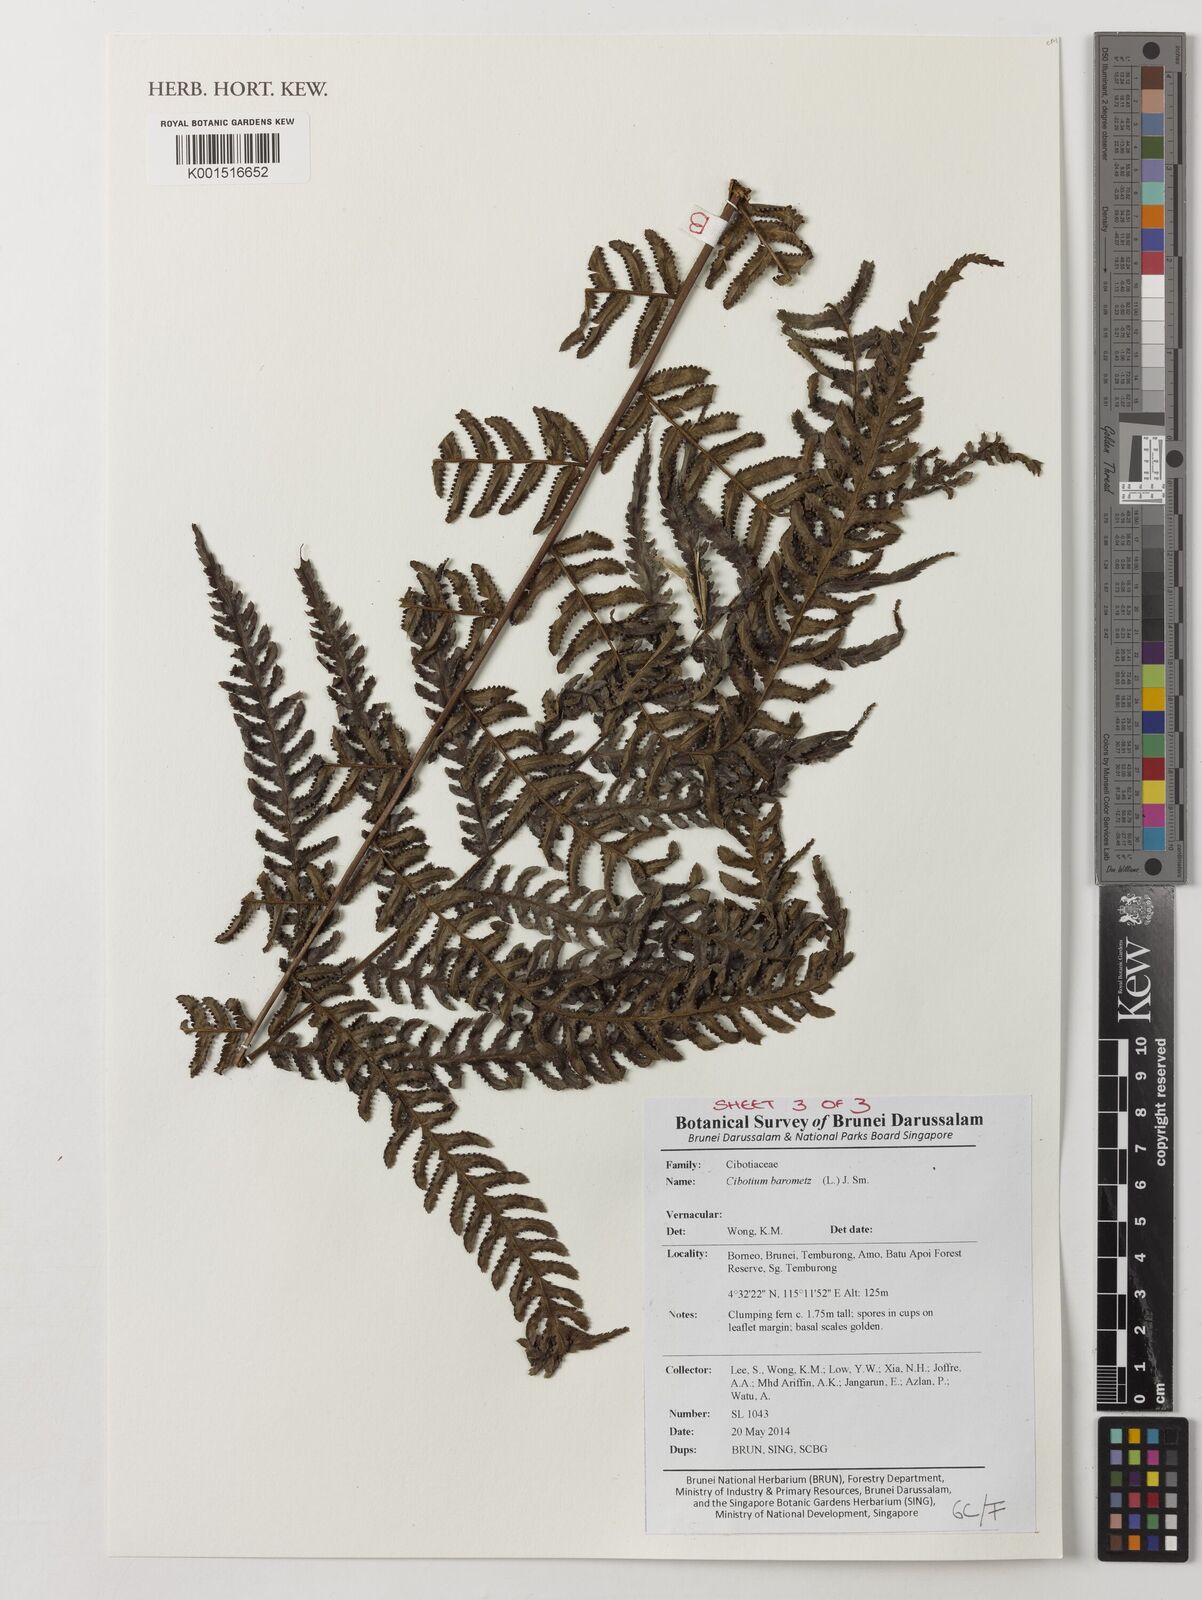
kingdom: Plantae
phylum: Tracheophyta
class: Polypodiopsida
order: Cyatheales
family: Cibotiaceae
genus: Cibotium
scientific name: Cibotium barometz
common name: Scythian-lamb
